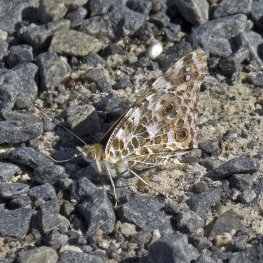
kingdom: Animalia
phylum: Arthropoda
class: Insecta
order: Lepidoptera
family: Nymphalidae
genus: Vanessa
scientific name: Vanessa cardui
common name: Painted Lady
